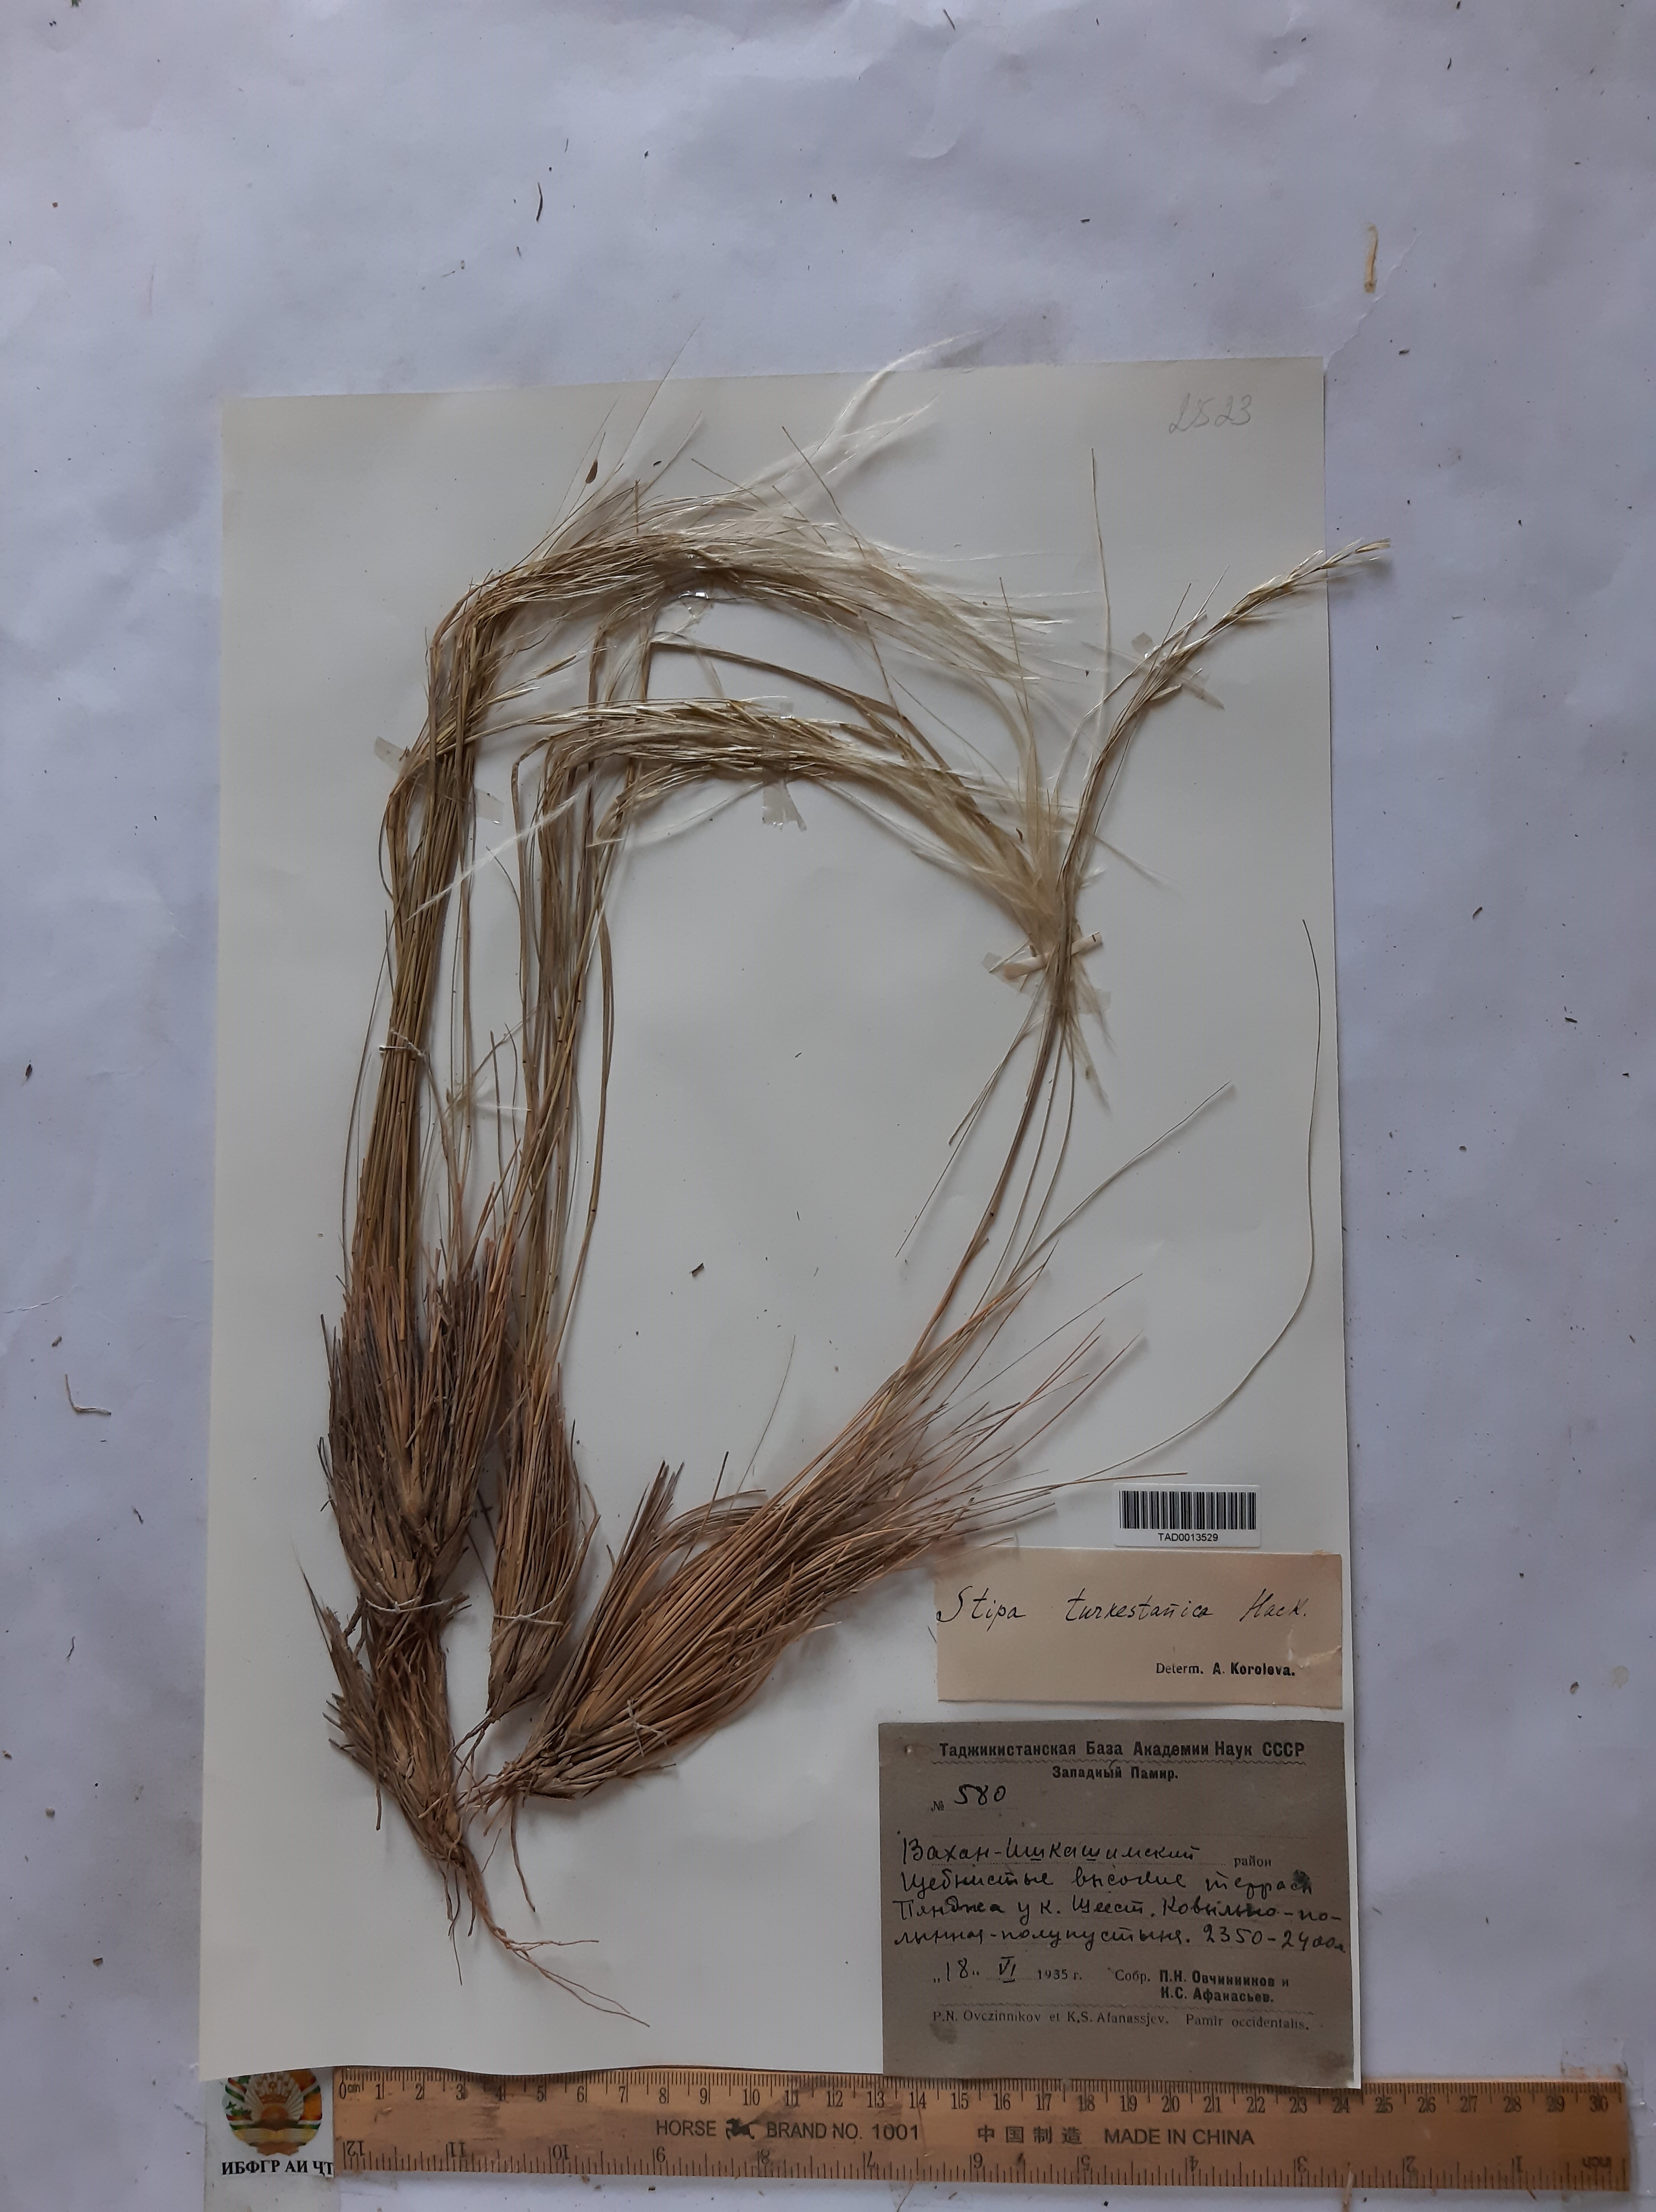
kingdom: Plantae
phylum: Tracheophyta
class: Liliopsida
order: Poales
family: Poaceae
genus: Stipa
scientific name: Stipa turkestanica
